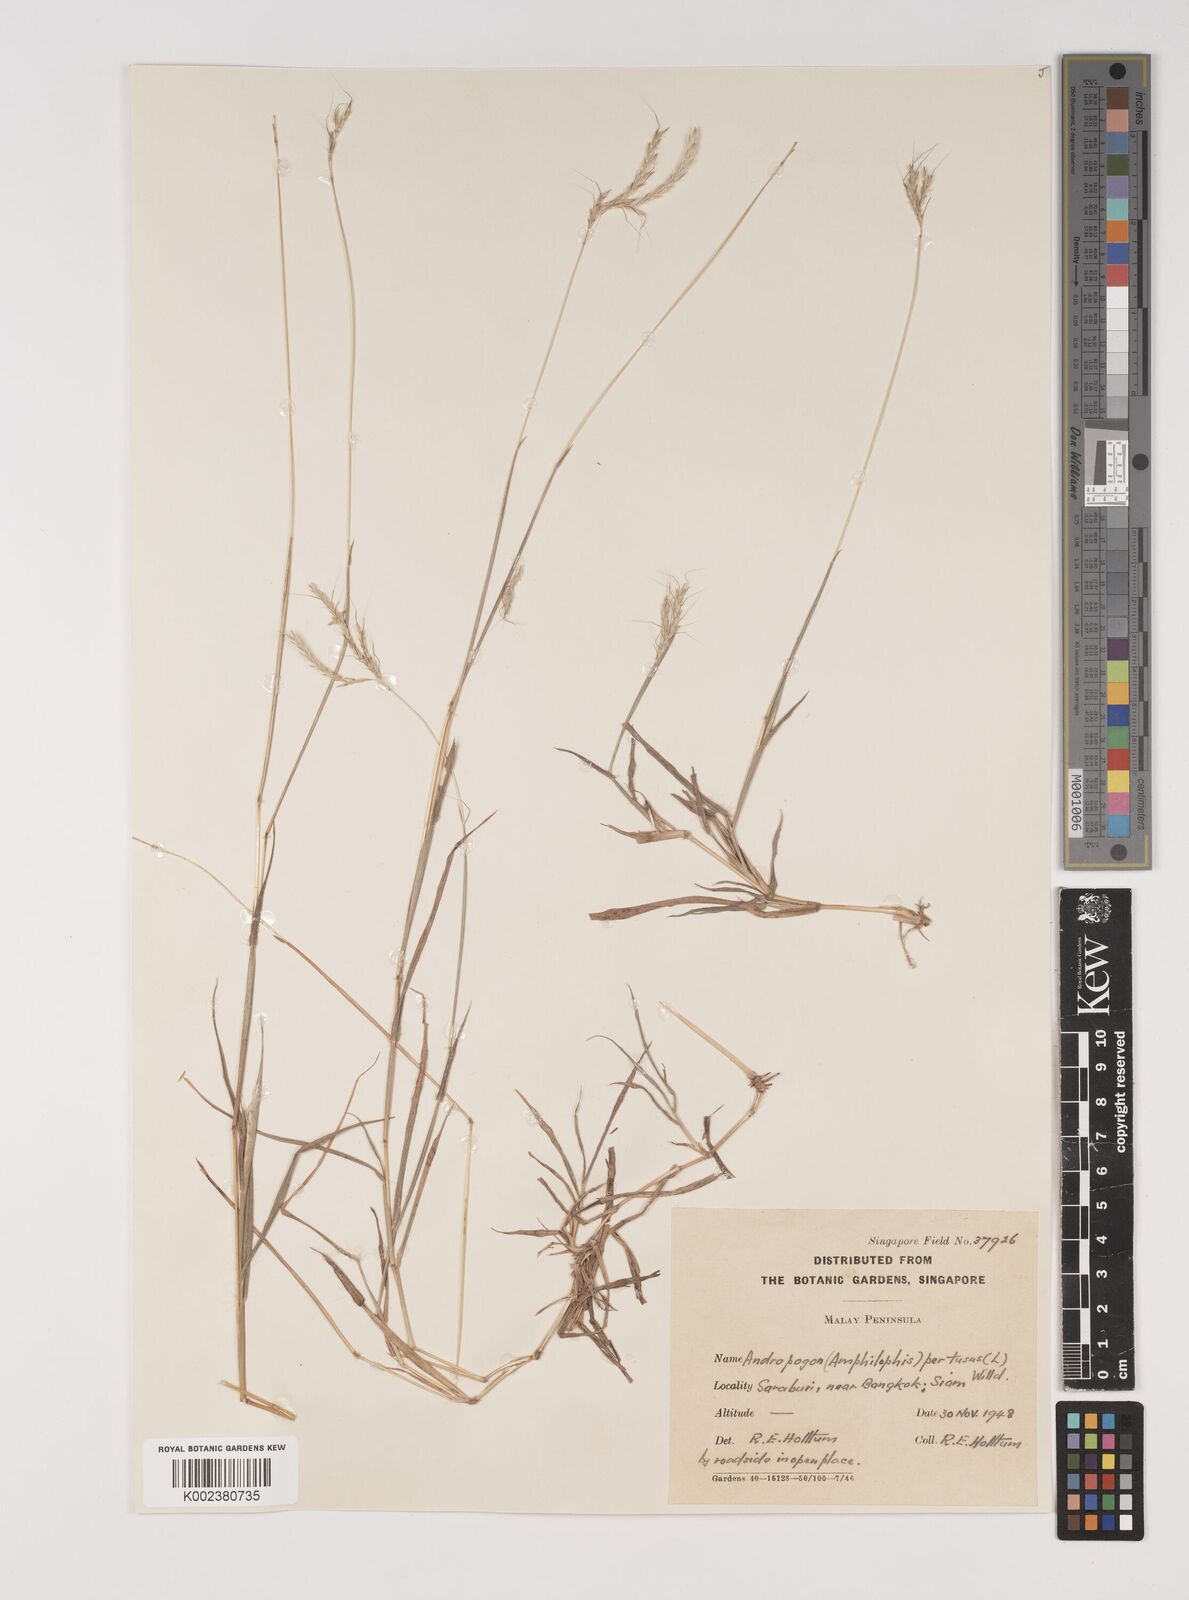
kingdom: Plantae
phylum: Tracheophyta
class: Liliopsida
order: Poales
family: Poaceae
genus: Bothriochloa
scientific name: Bothriochloa pertusa
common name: Pitted beardgrass
